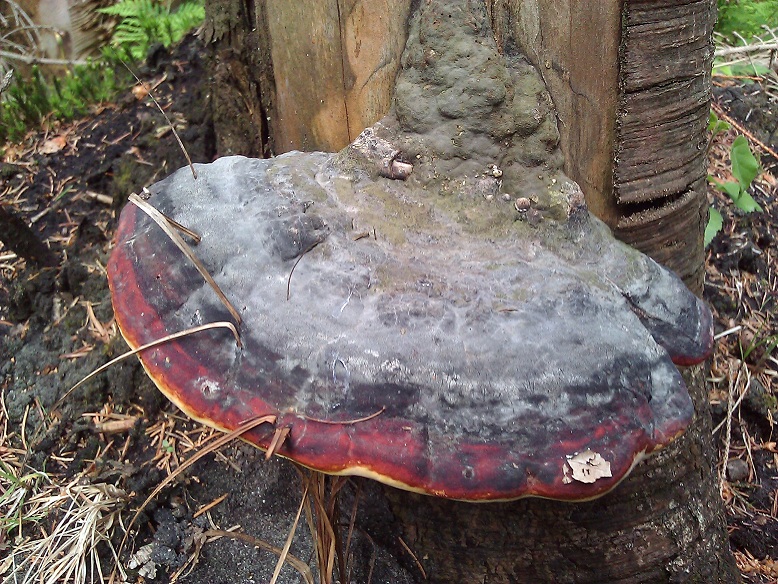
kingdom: Fungi
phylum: Basidiomycota
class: Agaricomycetes
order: Polyporales
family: Fomitopsidaceae
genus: Fomitopsis
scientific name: Fomitopsis pinicola
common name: randbæltet hovporesvamp
